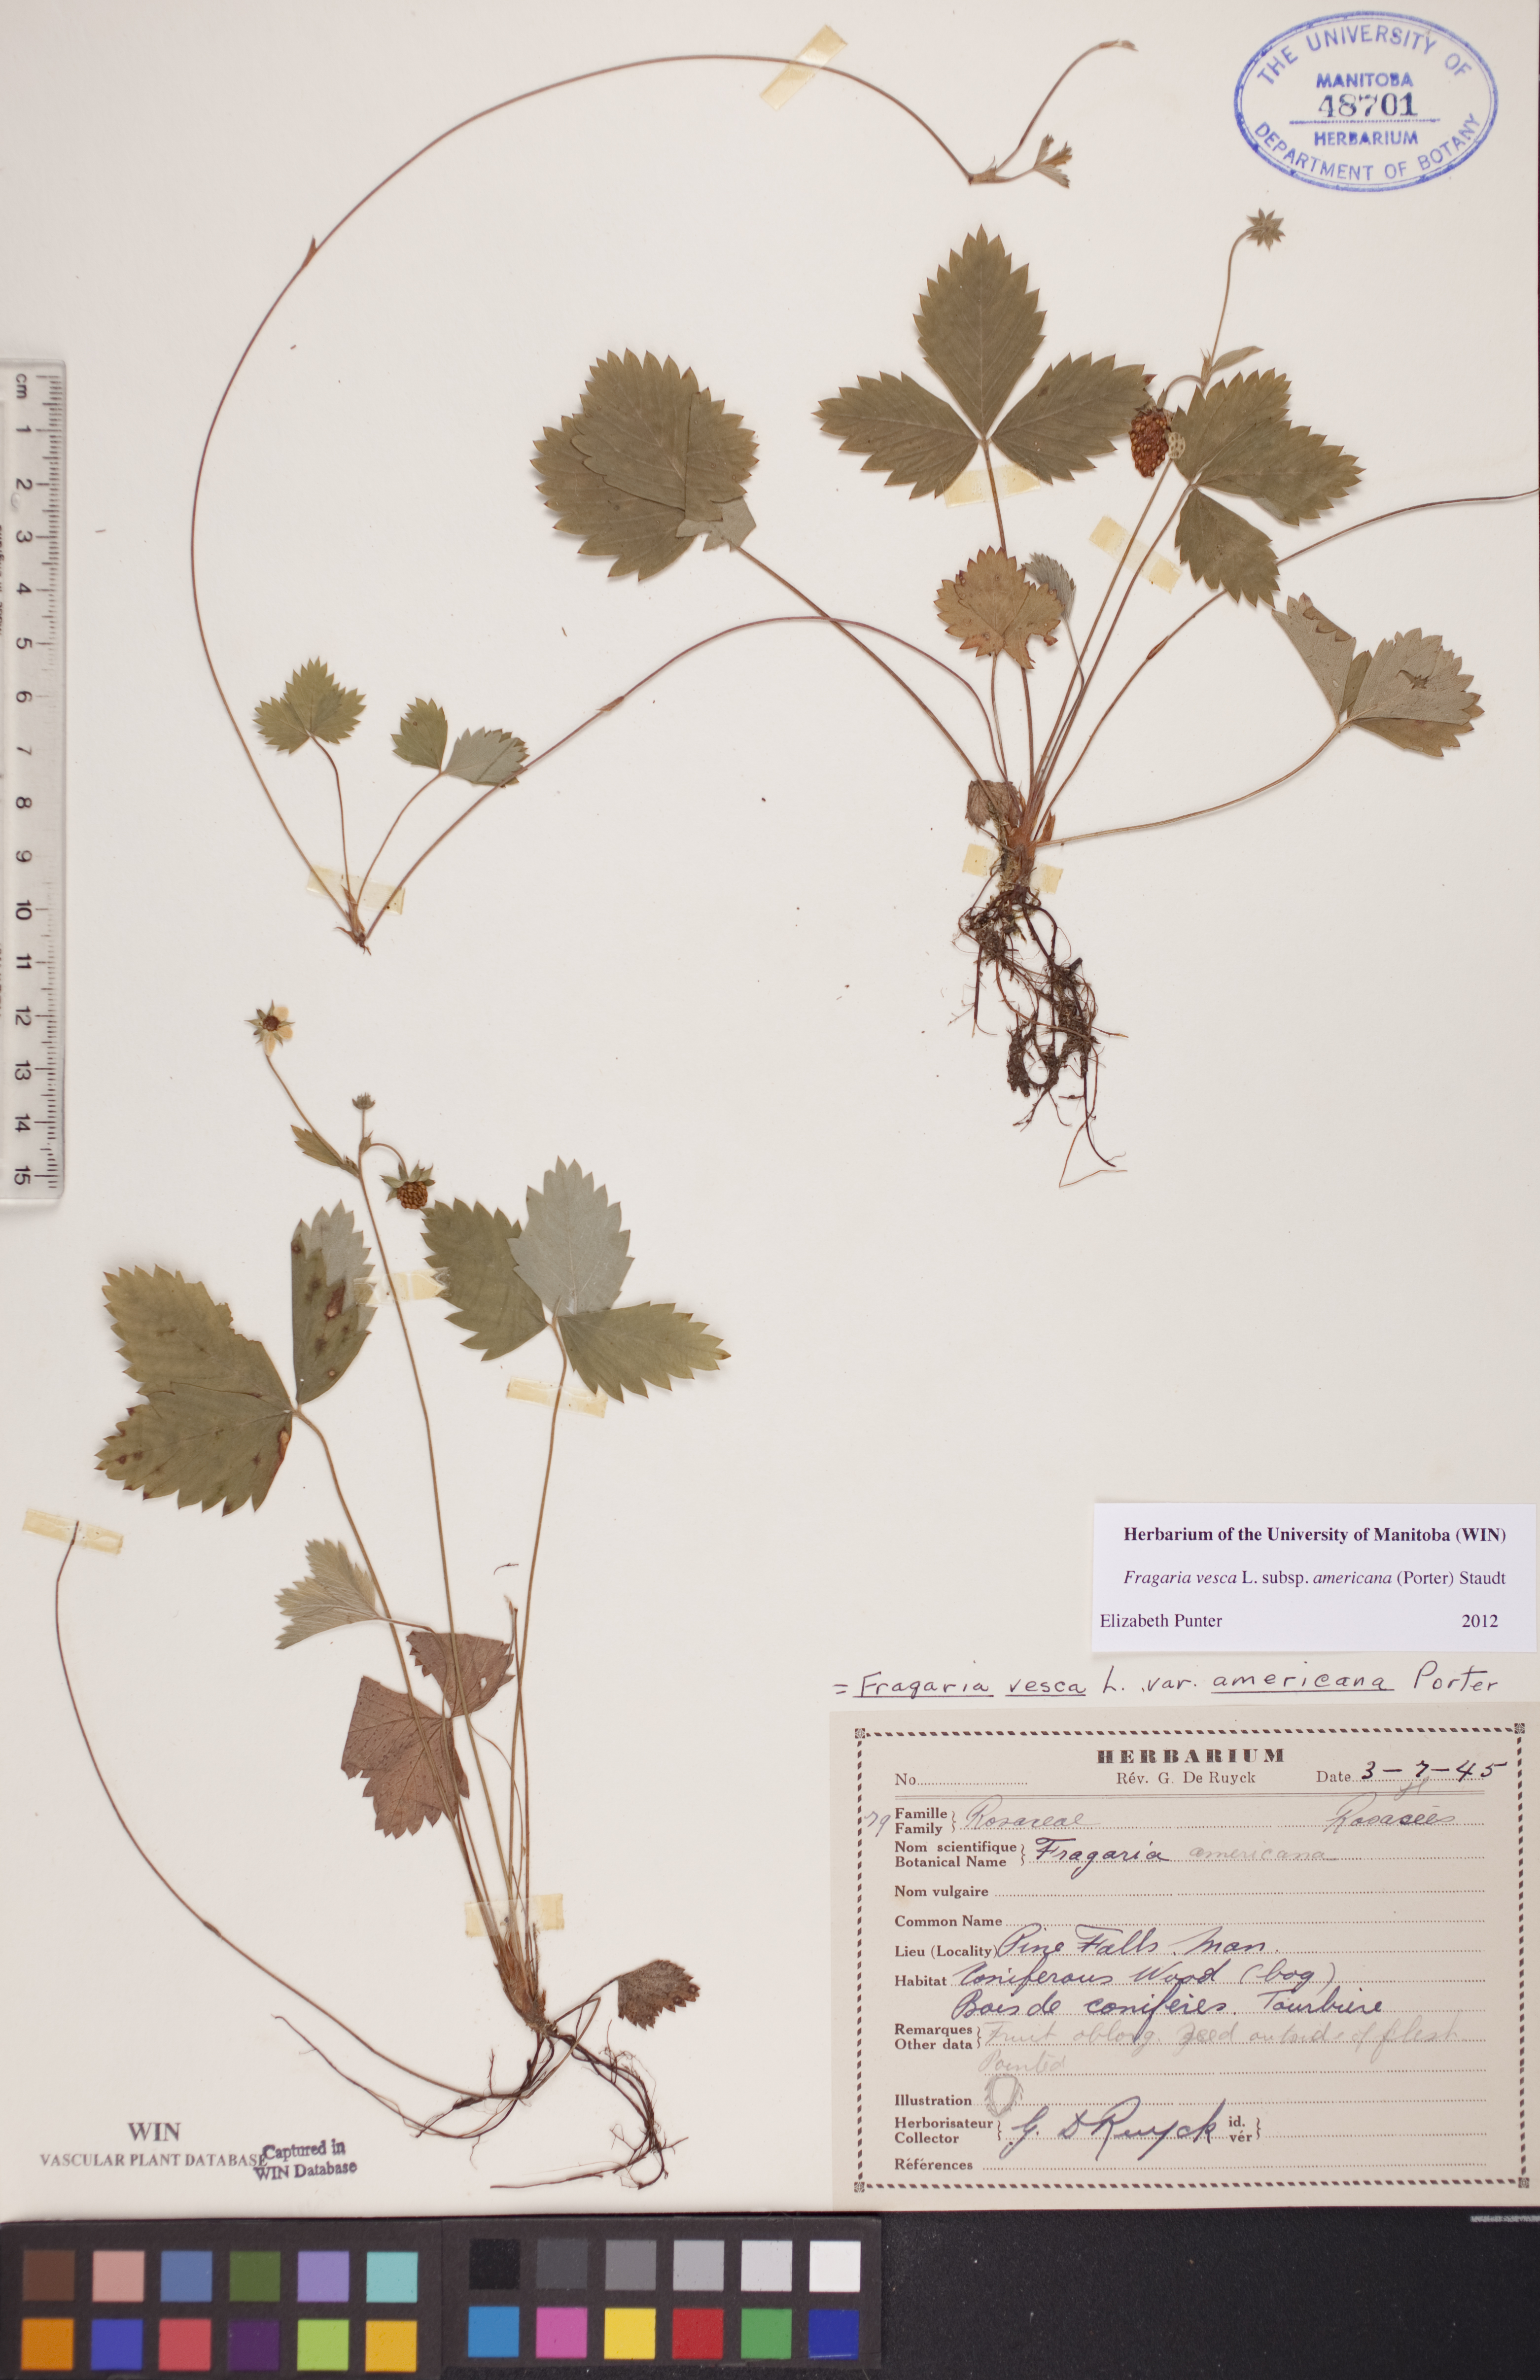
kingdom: Plantae
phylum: Tracheophyta
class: Magnoliopsida
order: Rosales
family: Rosaceae
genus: Fragaria
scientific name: Fragaria vesca
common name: Wild strawberry
